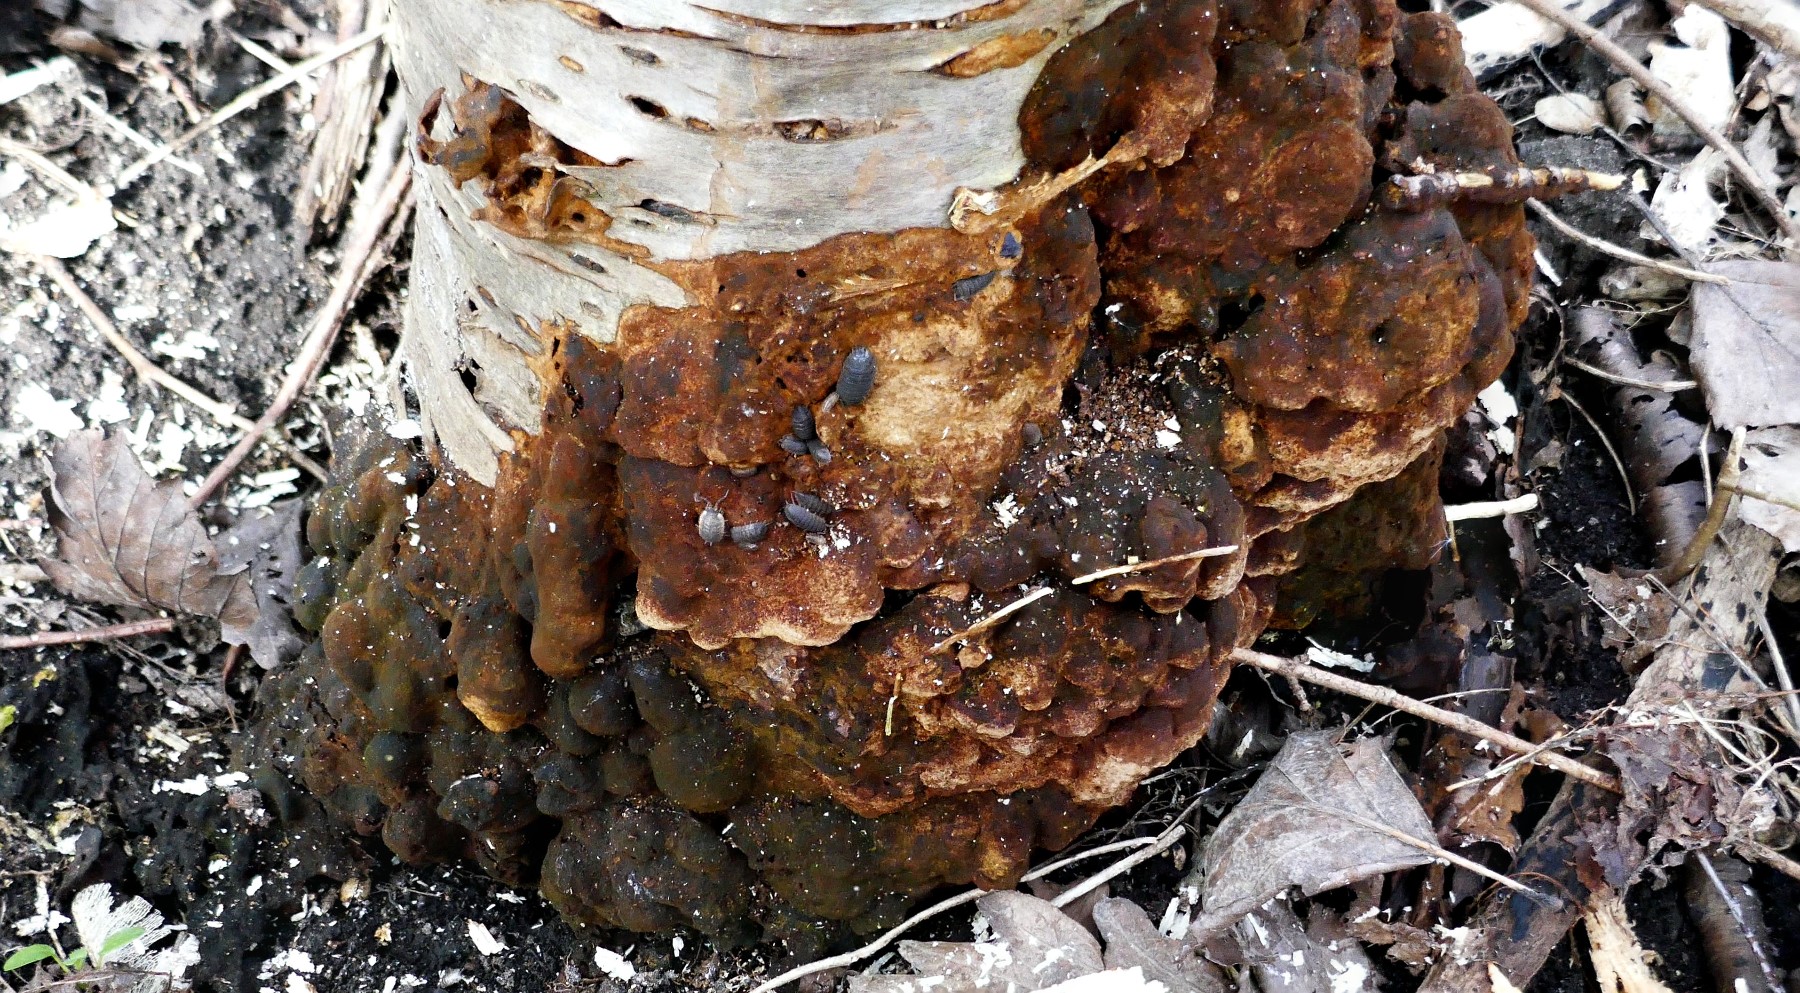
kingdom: Fungi
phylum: Basidiomycota
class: Agaricomycetes
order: Hymenochaetales
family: Hymenochaetaceae
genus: Fuscoporia
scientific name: Fuscoporia ferrea
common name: skorpe-ildporesvamp
